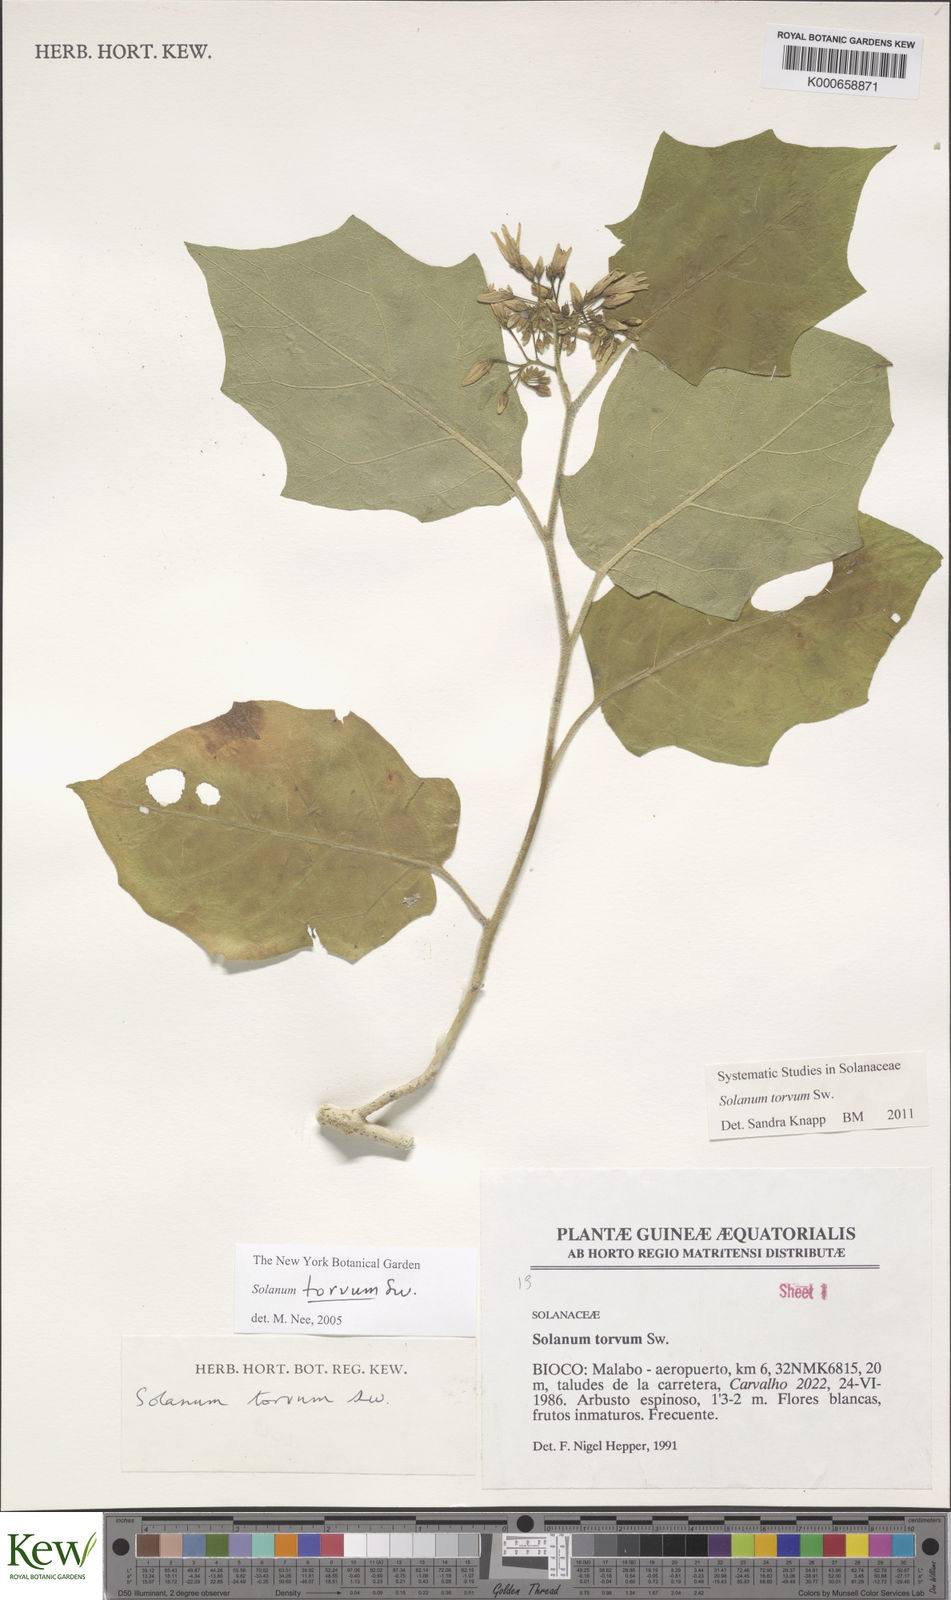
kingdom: Plantae
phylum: Tracheophyta
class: Magnoliopsida
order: Solanales
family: Solanaceae
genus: Solanum
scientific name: Solanum torvum
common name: Turkey berry
